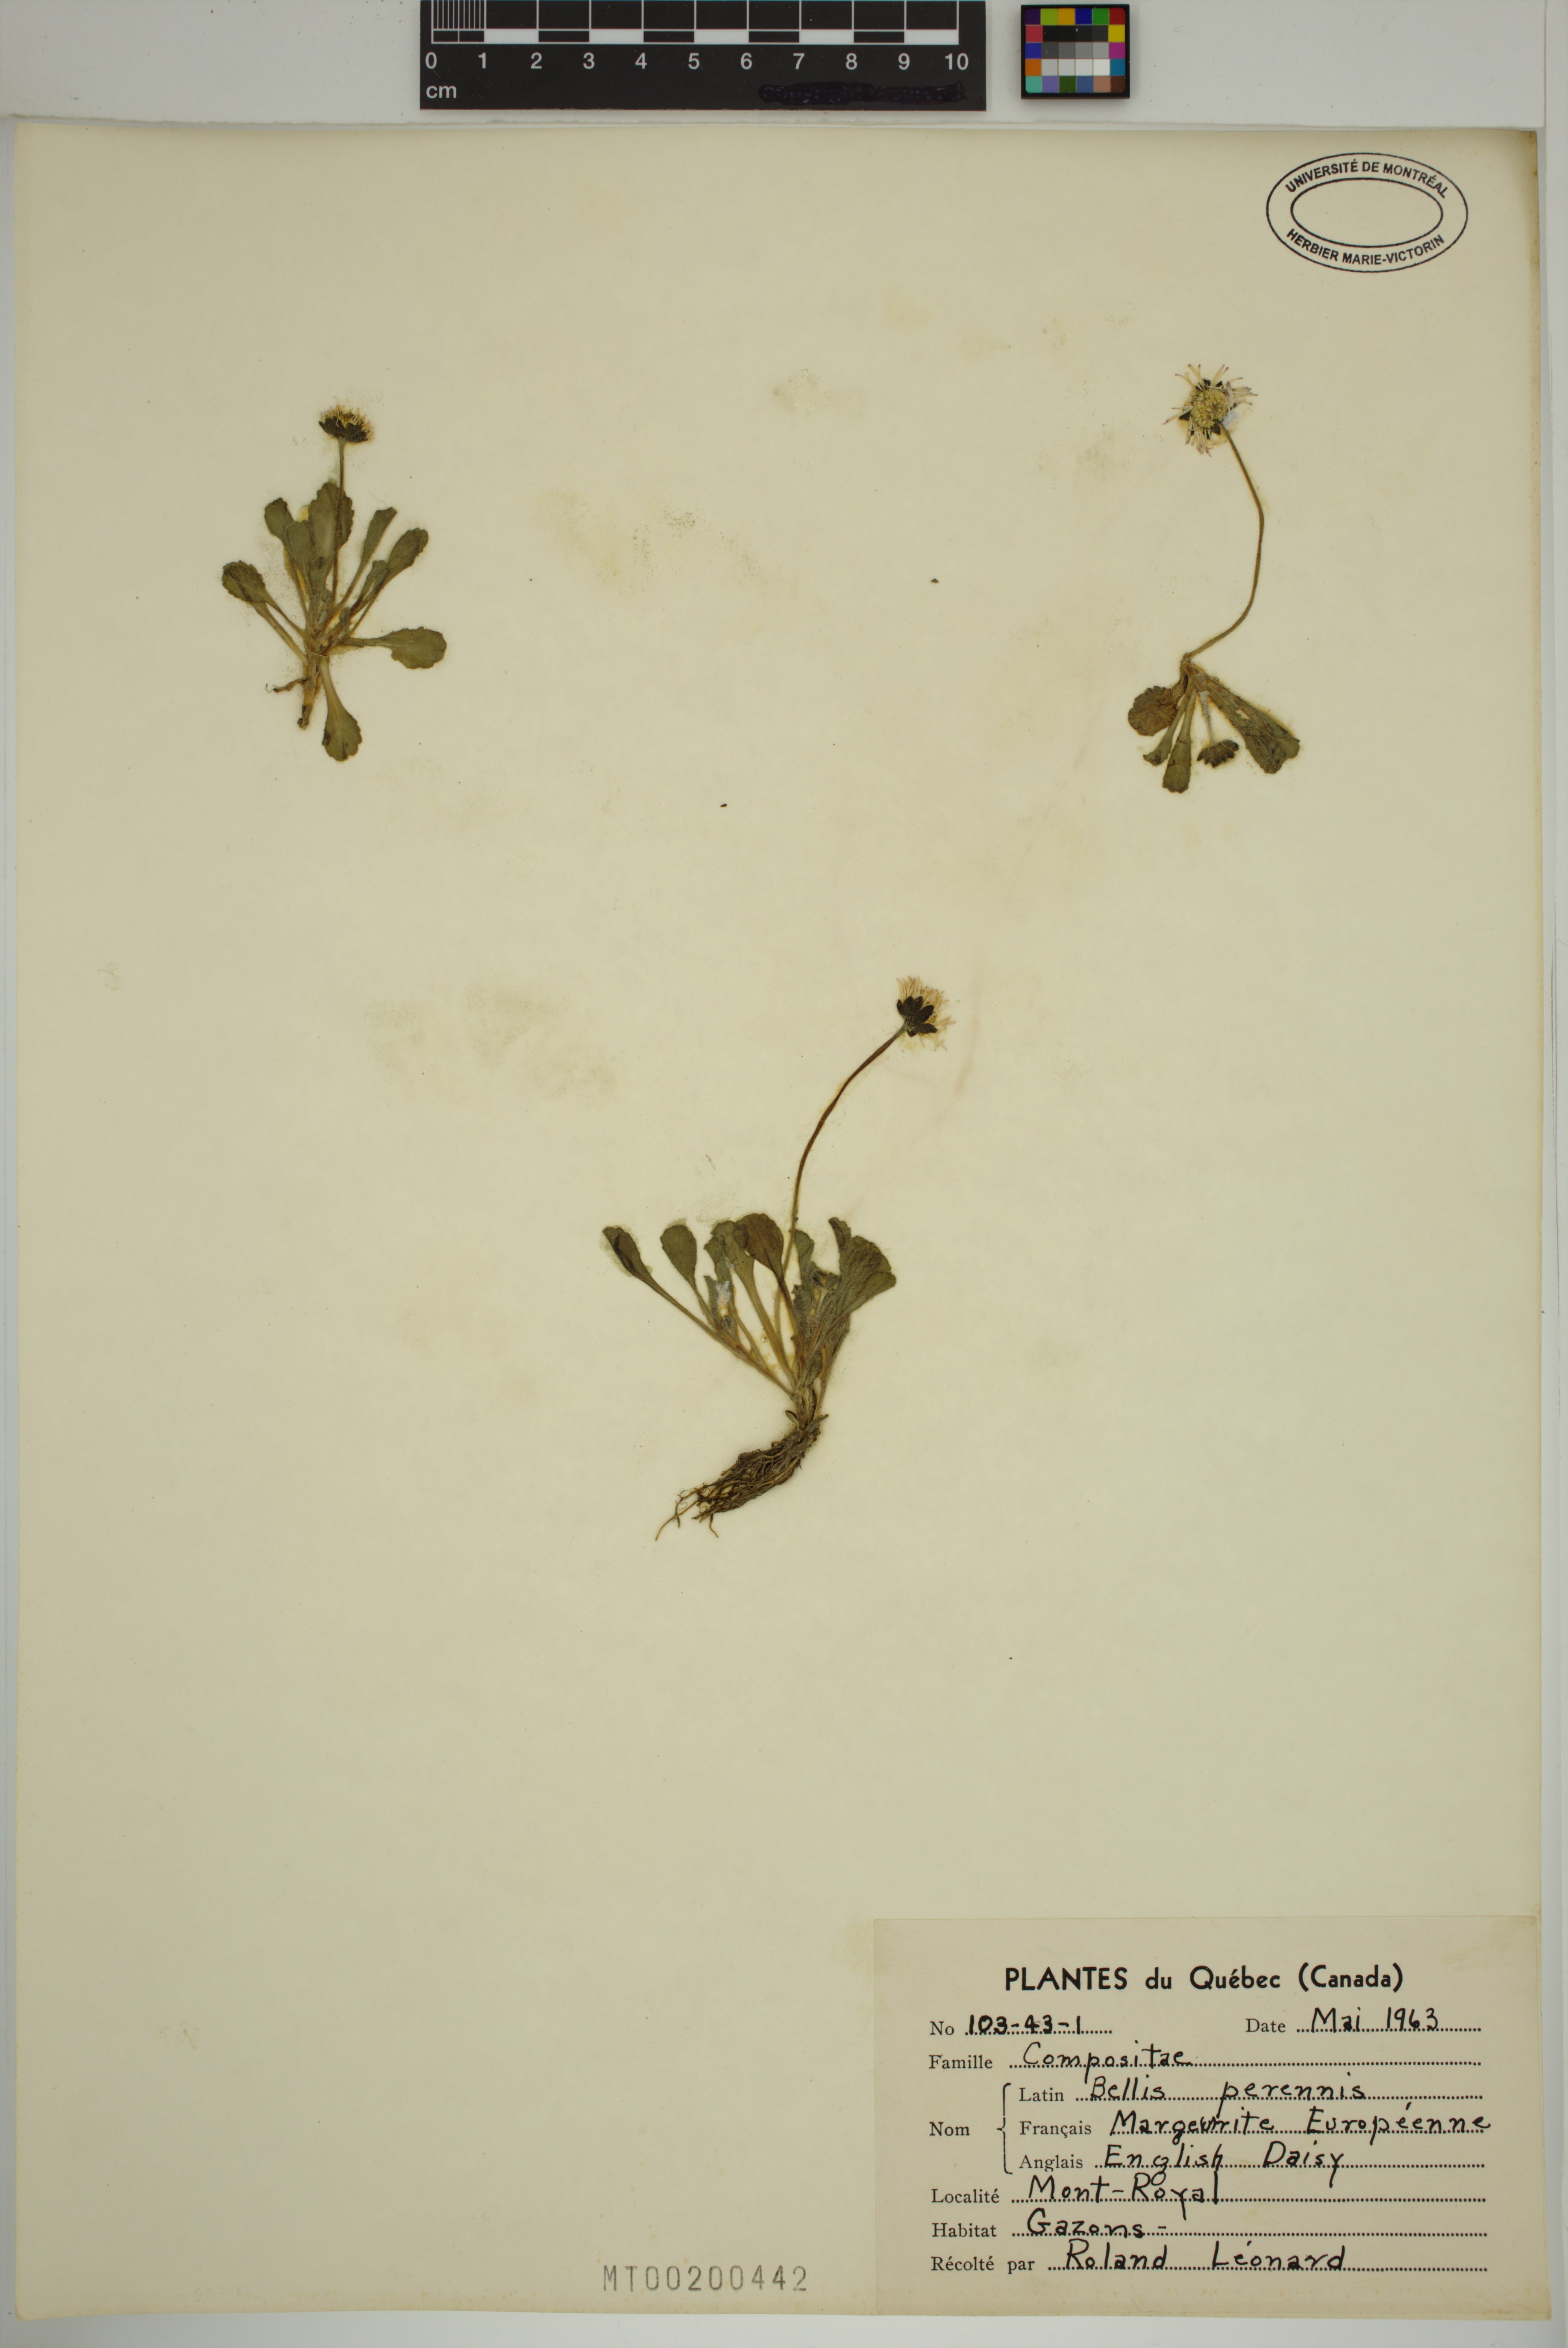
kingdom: Plantae
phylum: Tracheophyta
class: Magnoliopsida
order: Asterales
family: Asteraceae
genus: Bellis
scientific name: Bellis perennis
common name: Lawndaisy
